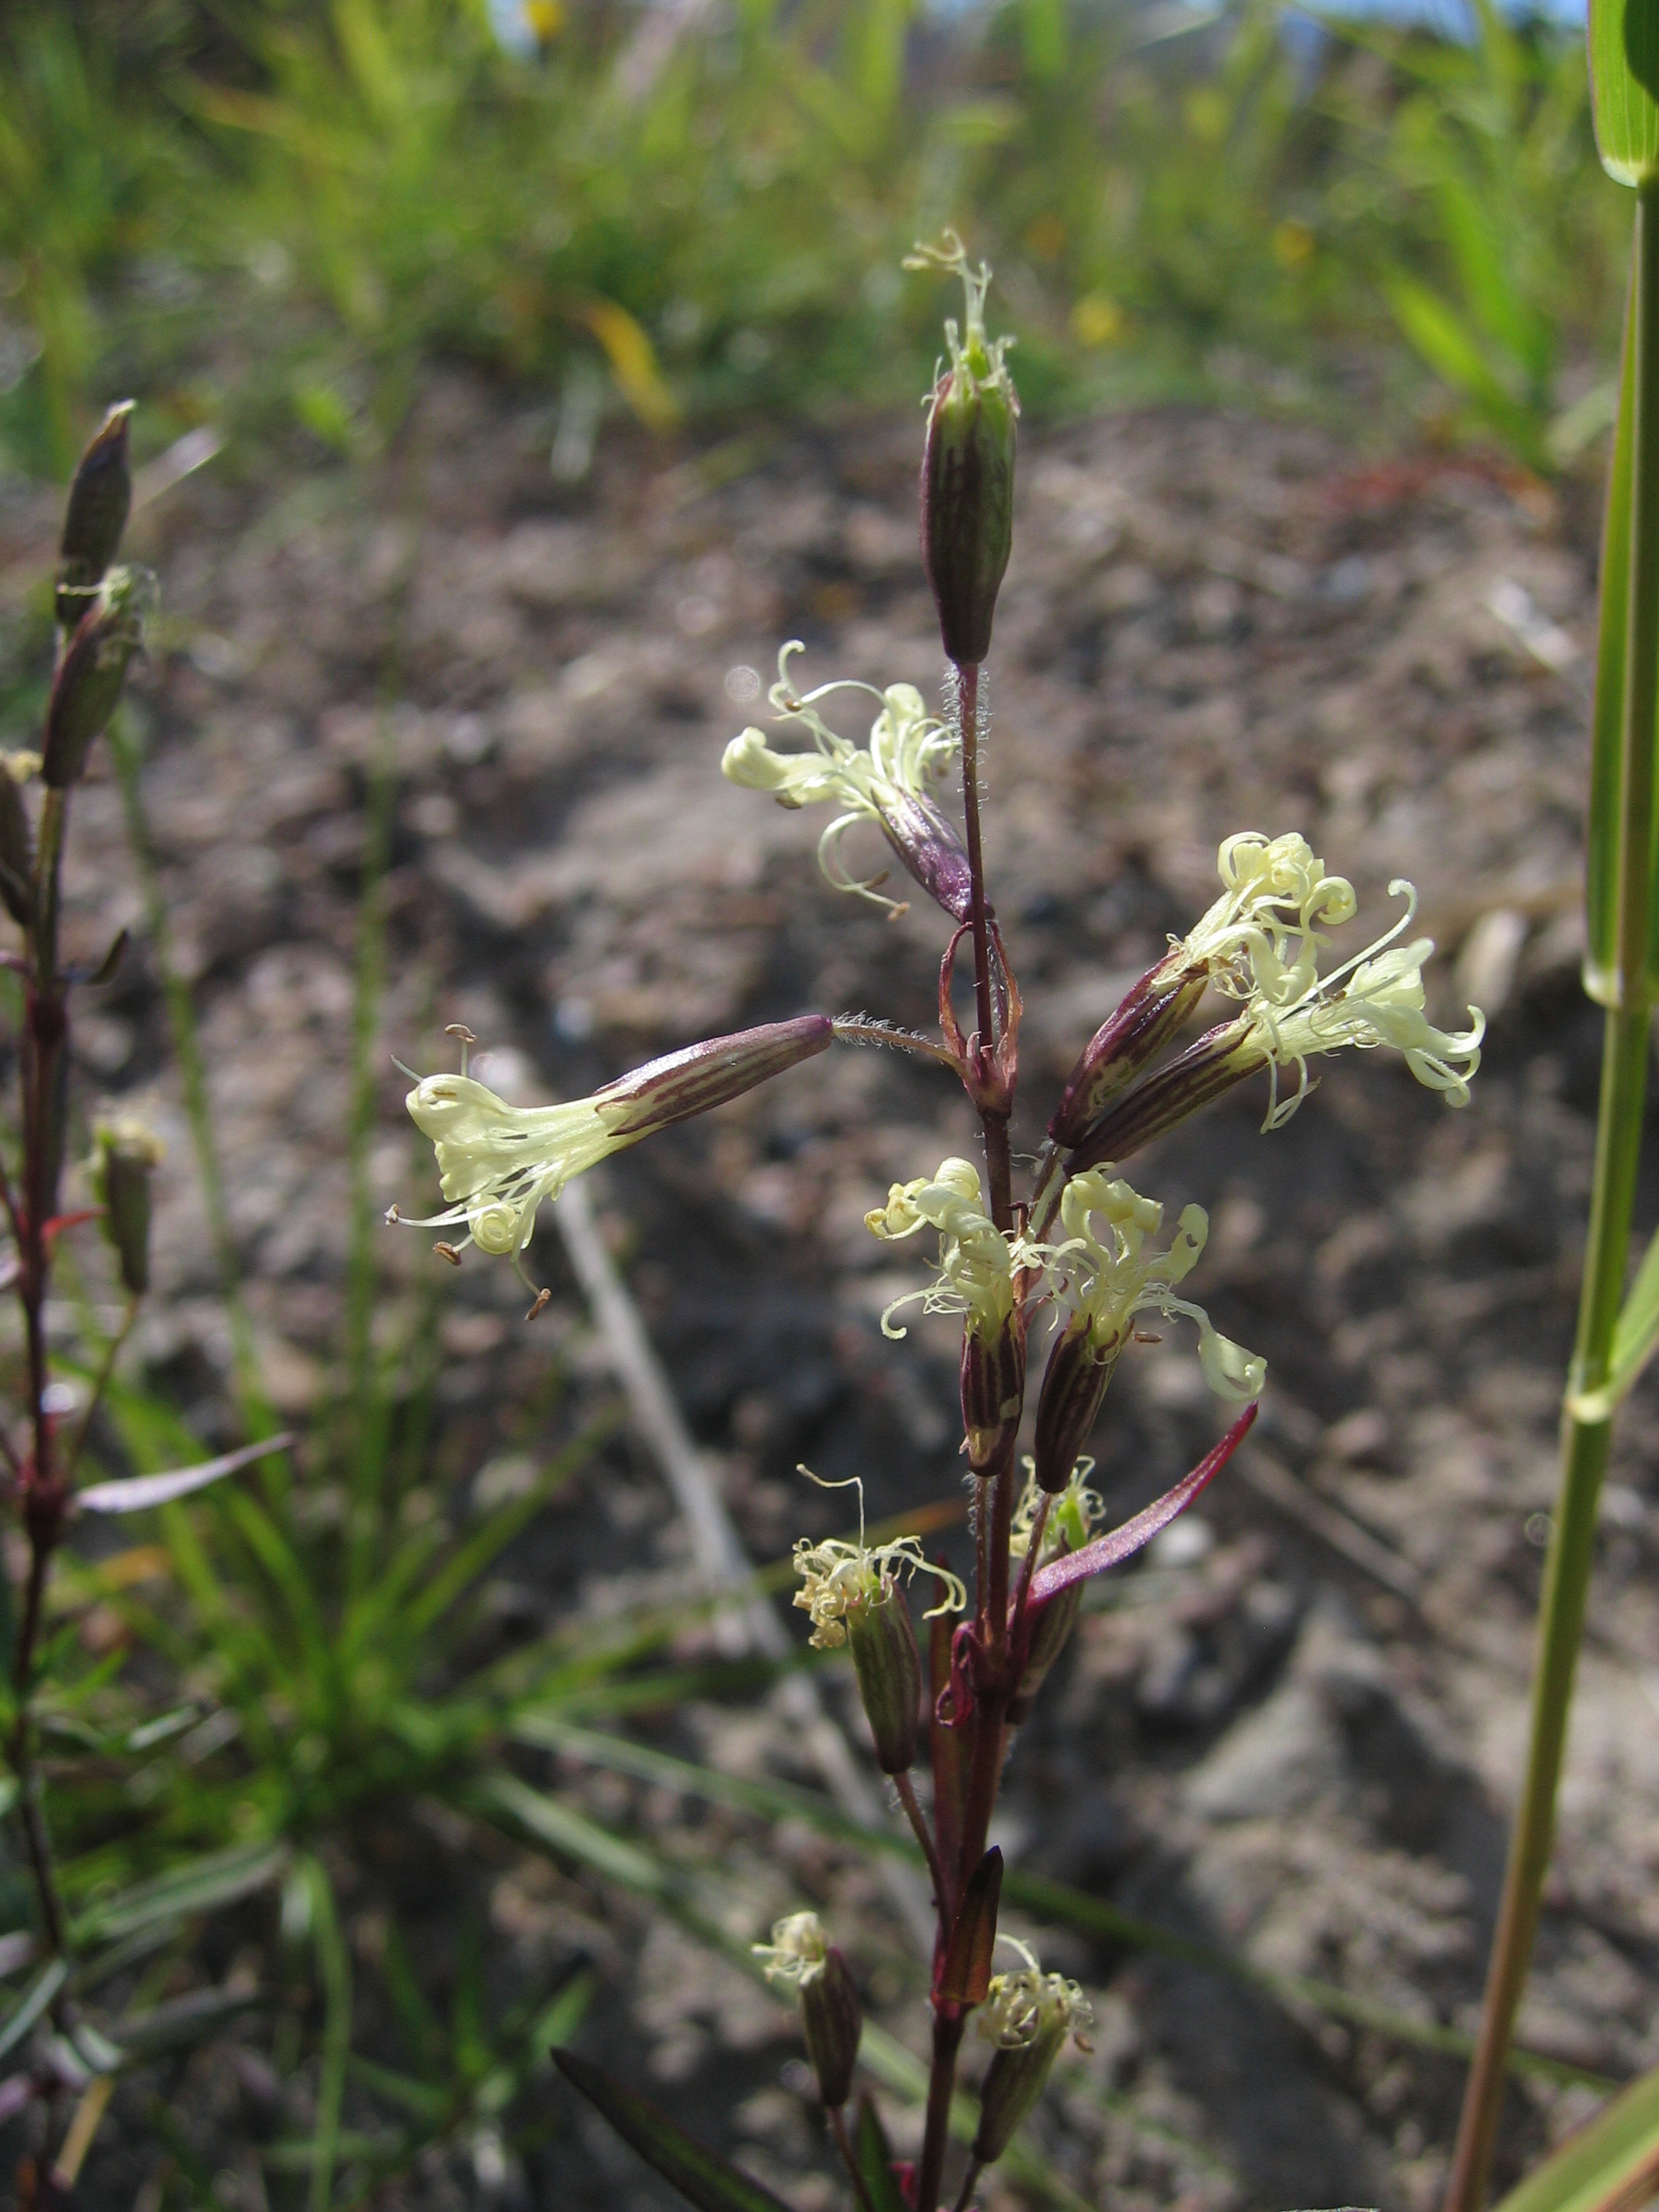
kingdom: Plantae
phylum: Tracheophyta
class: Magnoliopsida
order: Caryophyllales
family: Caryophyllaceae
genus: Silene
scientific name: Silene tatarica
